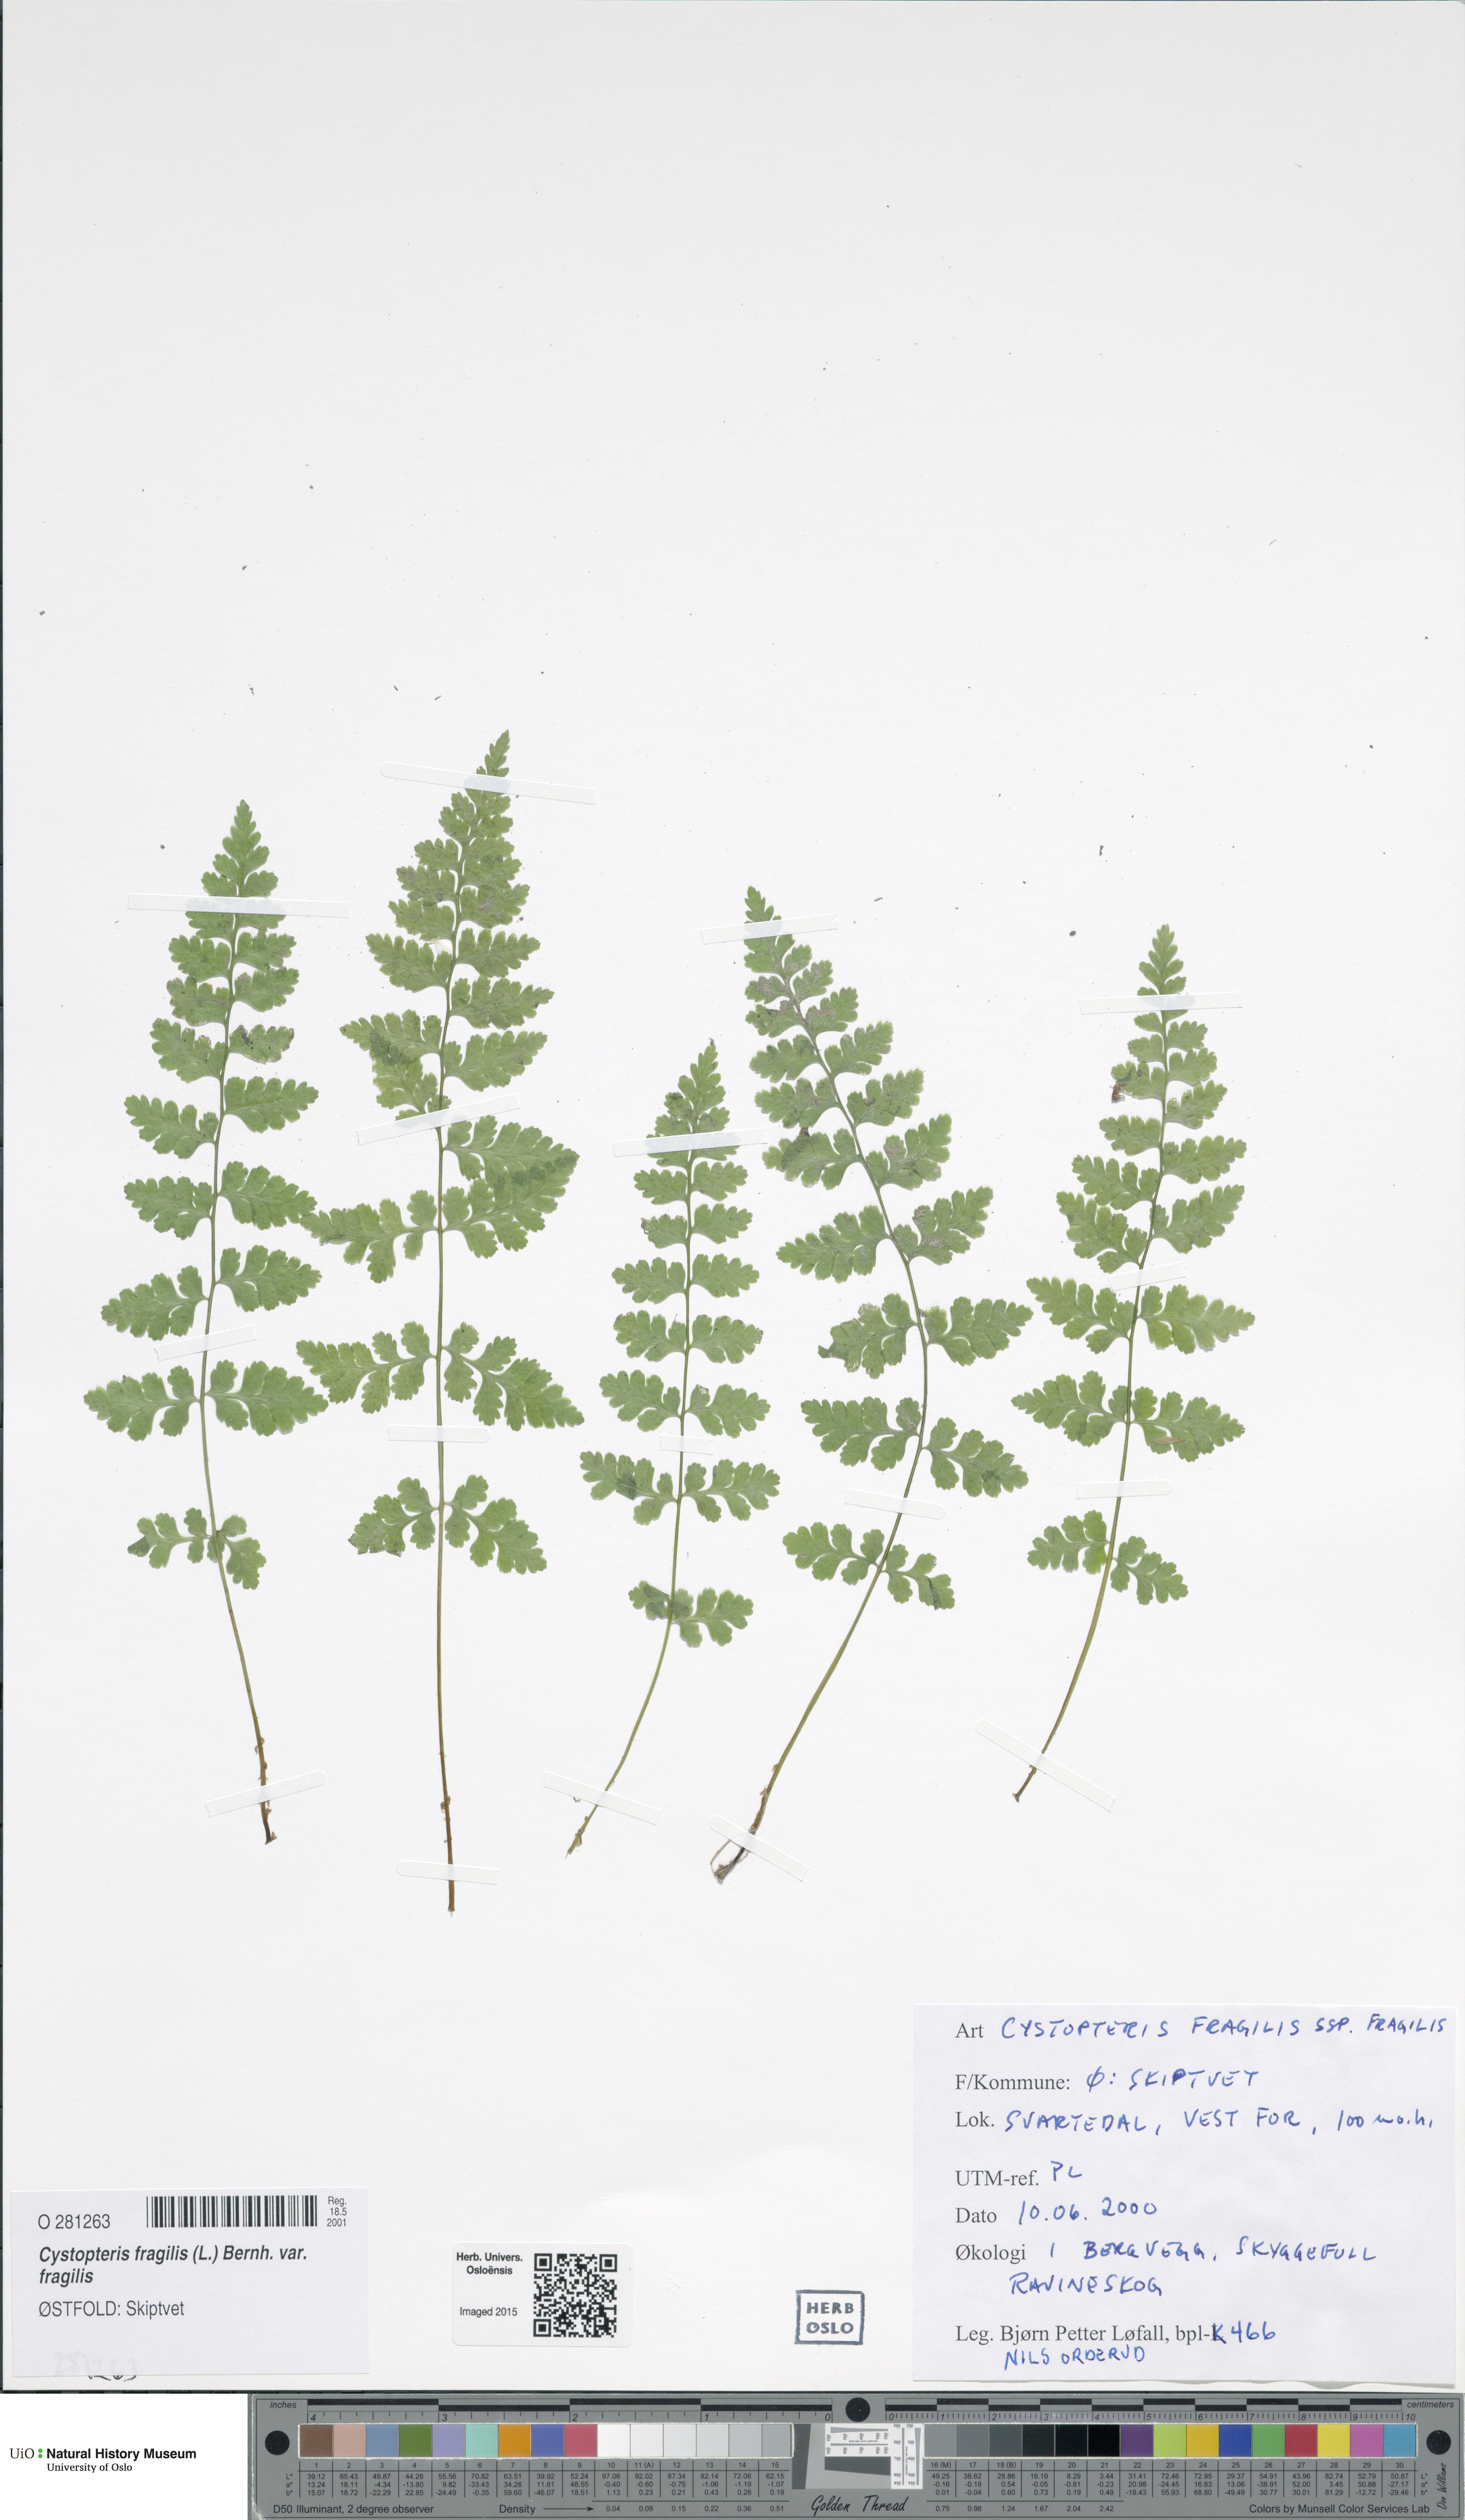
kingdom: Plantae
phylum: Tracheophyta
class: Polypodiopsida
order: Polypodiales
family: Cystopteridaceae
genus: Cystopteris
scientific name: Cystopteris fragilis
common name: Brittle bladder fern
